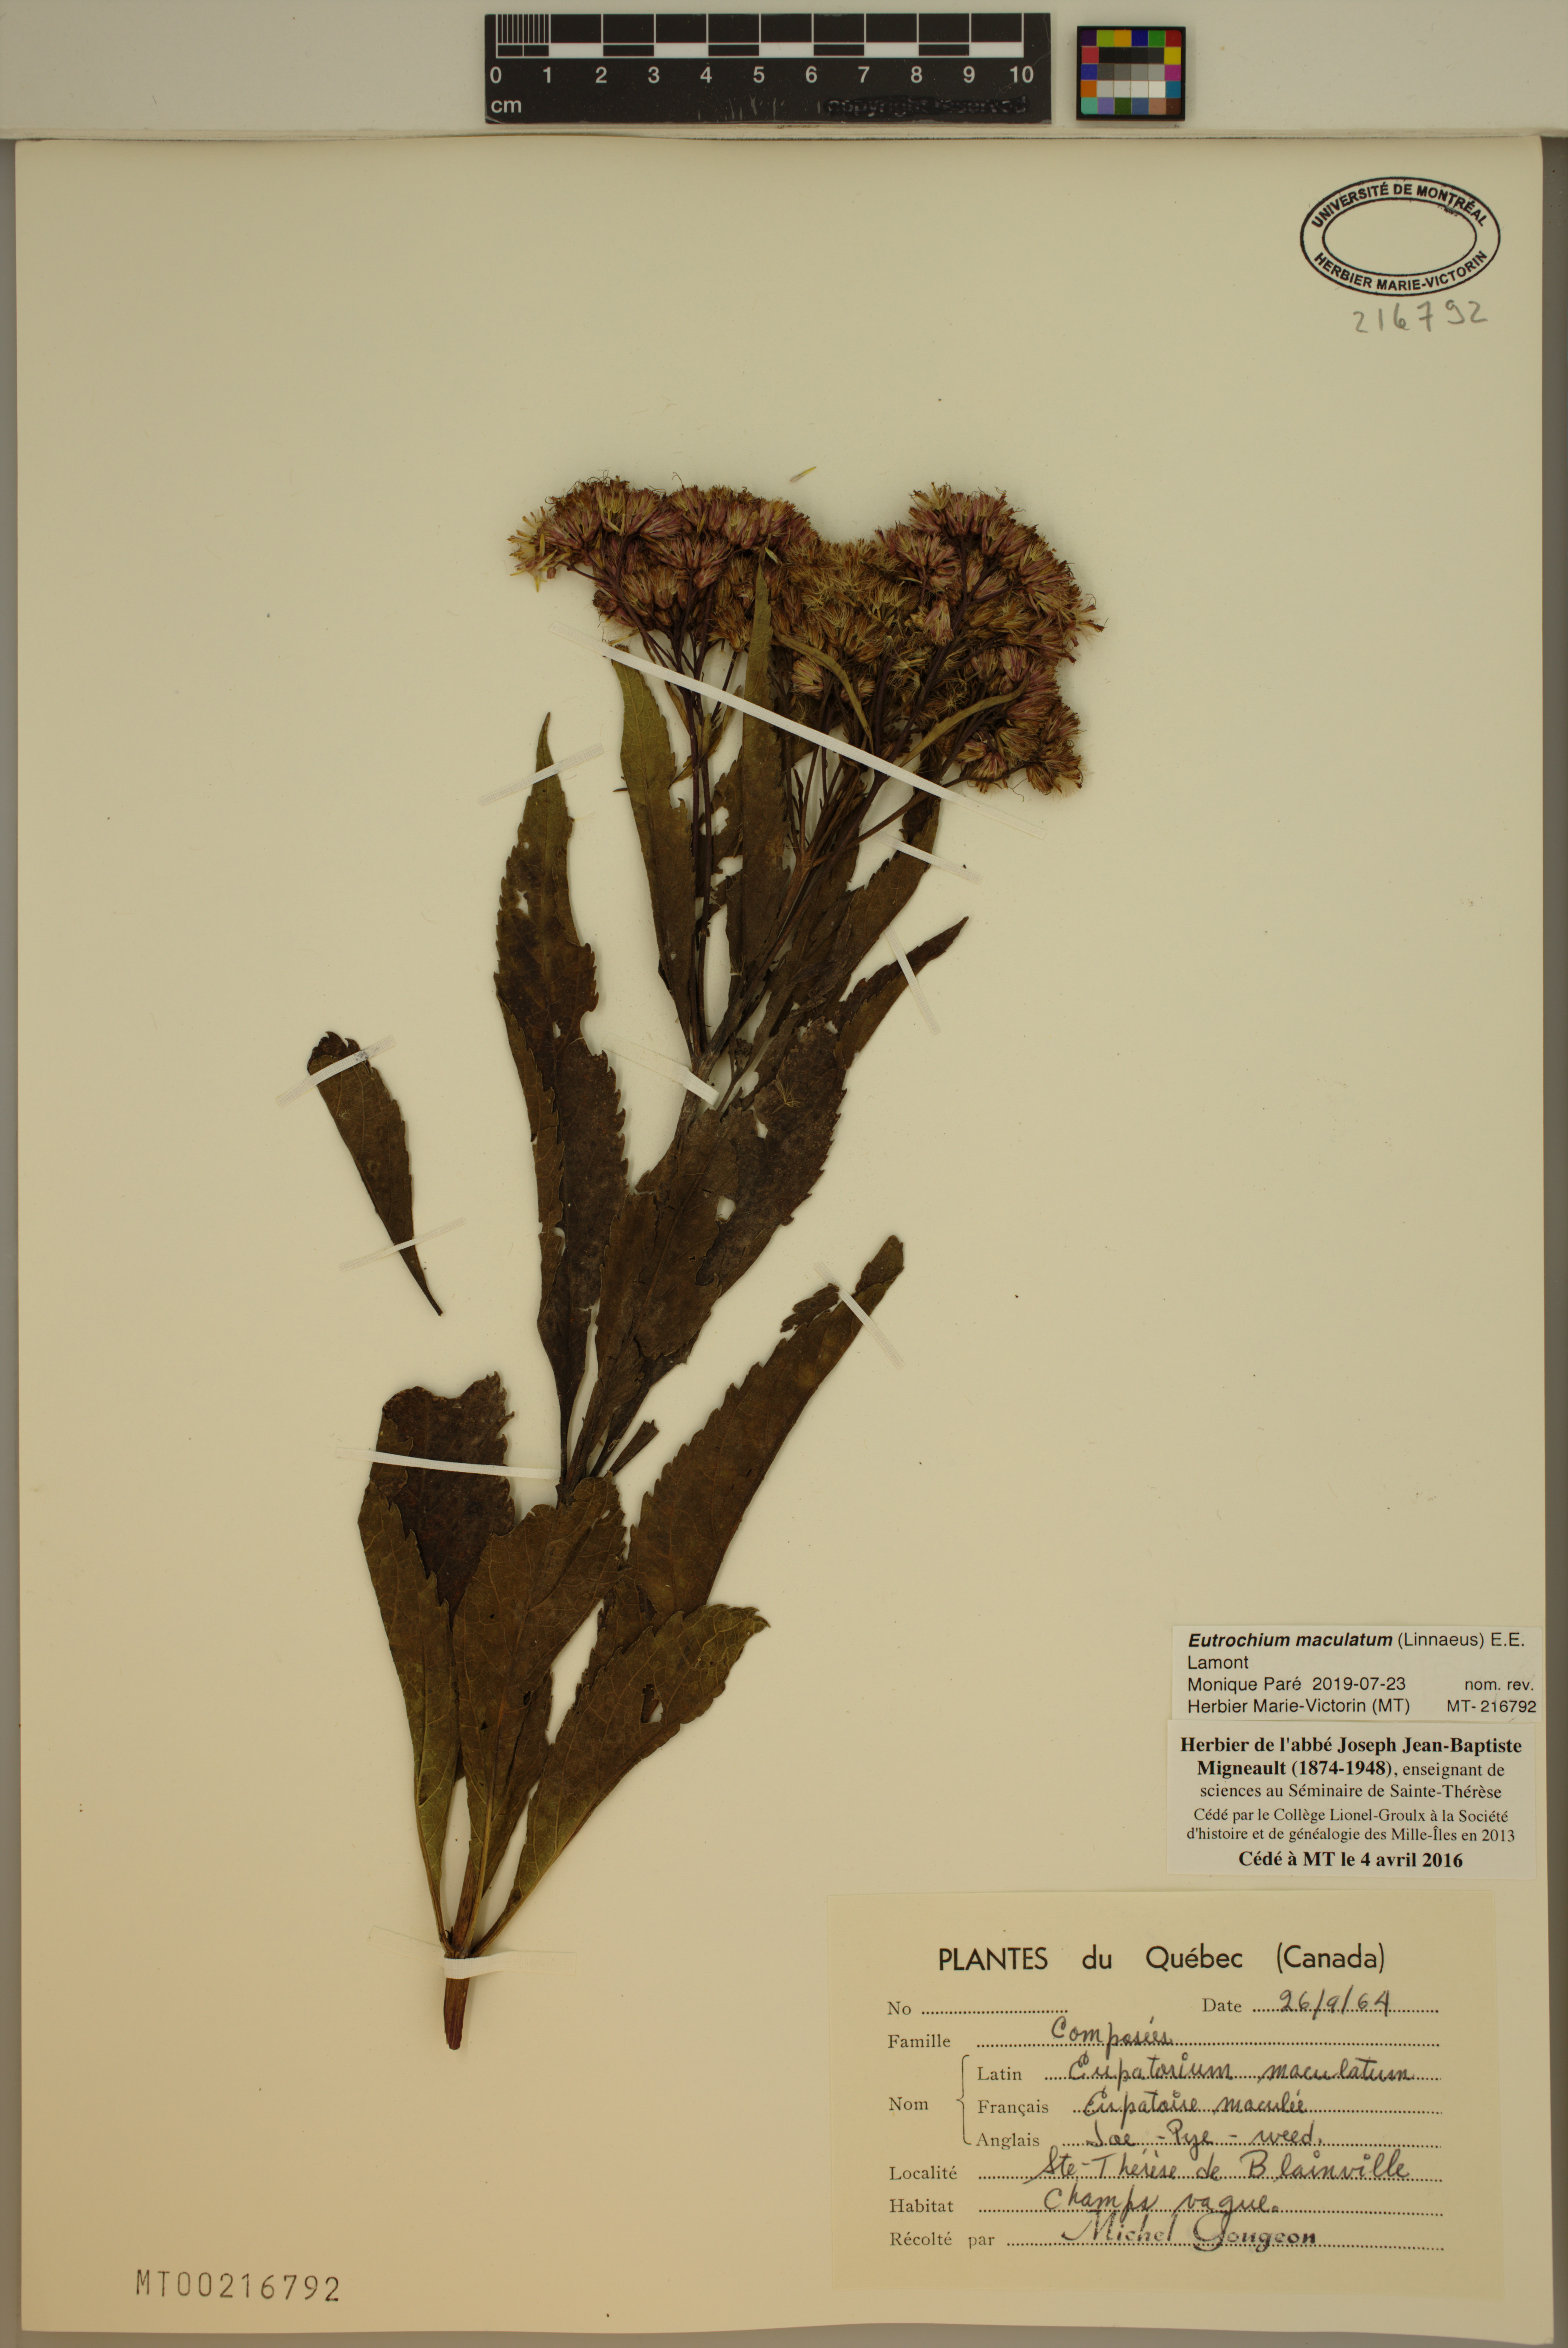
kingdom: Plantae
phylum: Tracheophyta
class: Magnoliopsida
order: Asterales
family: Asteraceae
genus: Eutrochium
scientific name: Eutrochium maculatum
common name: Spotted joe pye weed
